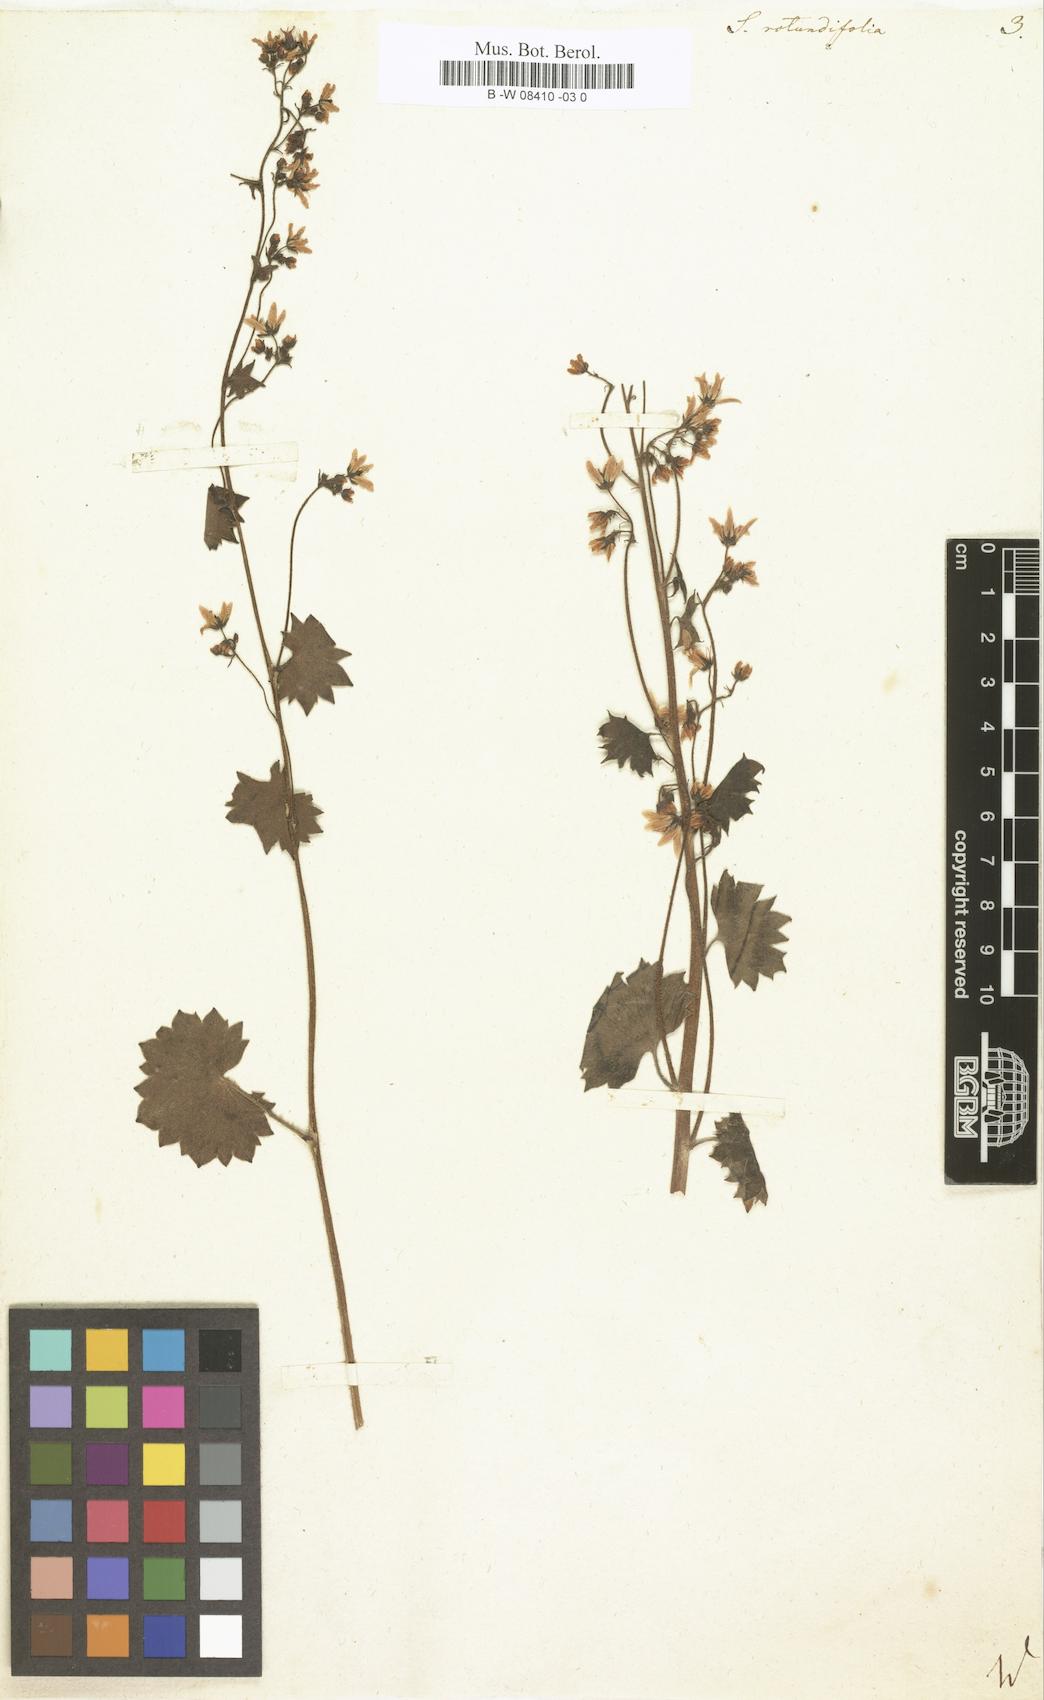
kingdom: Plantae
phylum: Tracheophyta
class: Magnoliopsida
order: Saxifragales
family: Saxifragaceae
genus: Saxifraga
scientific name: Saxifraga rotundifolia
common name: Round-leaved saxifrage
